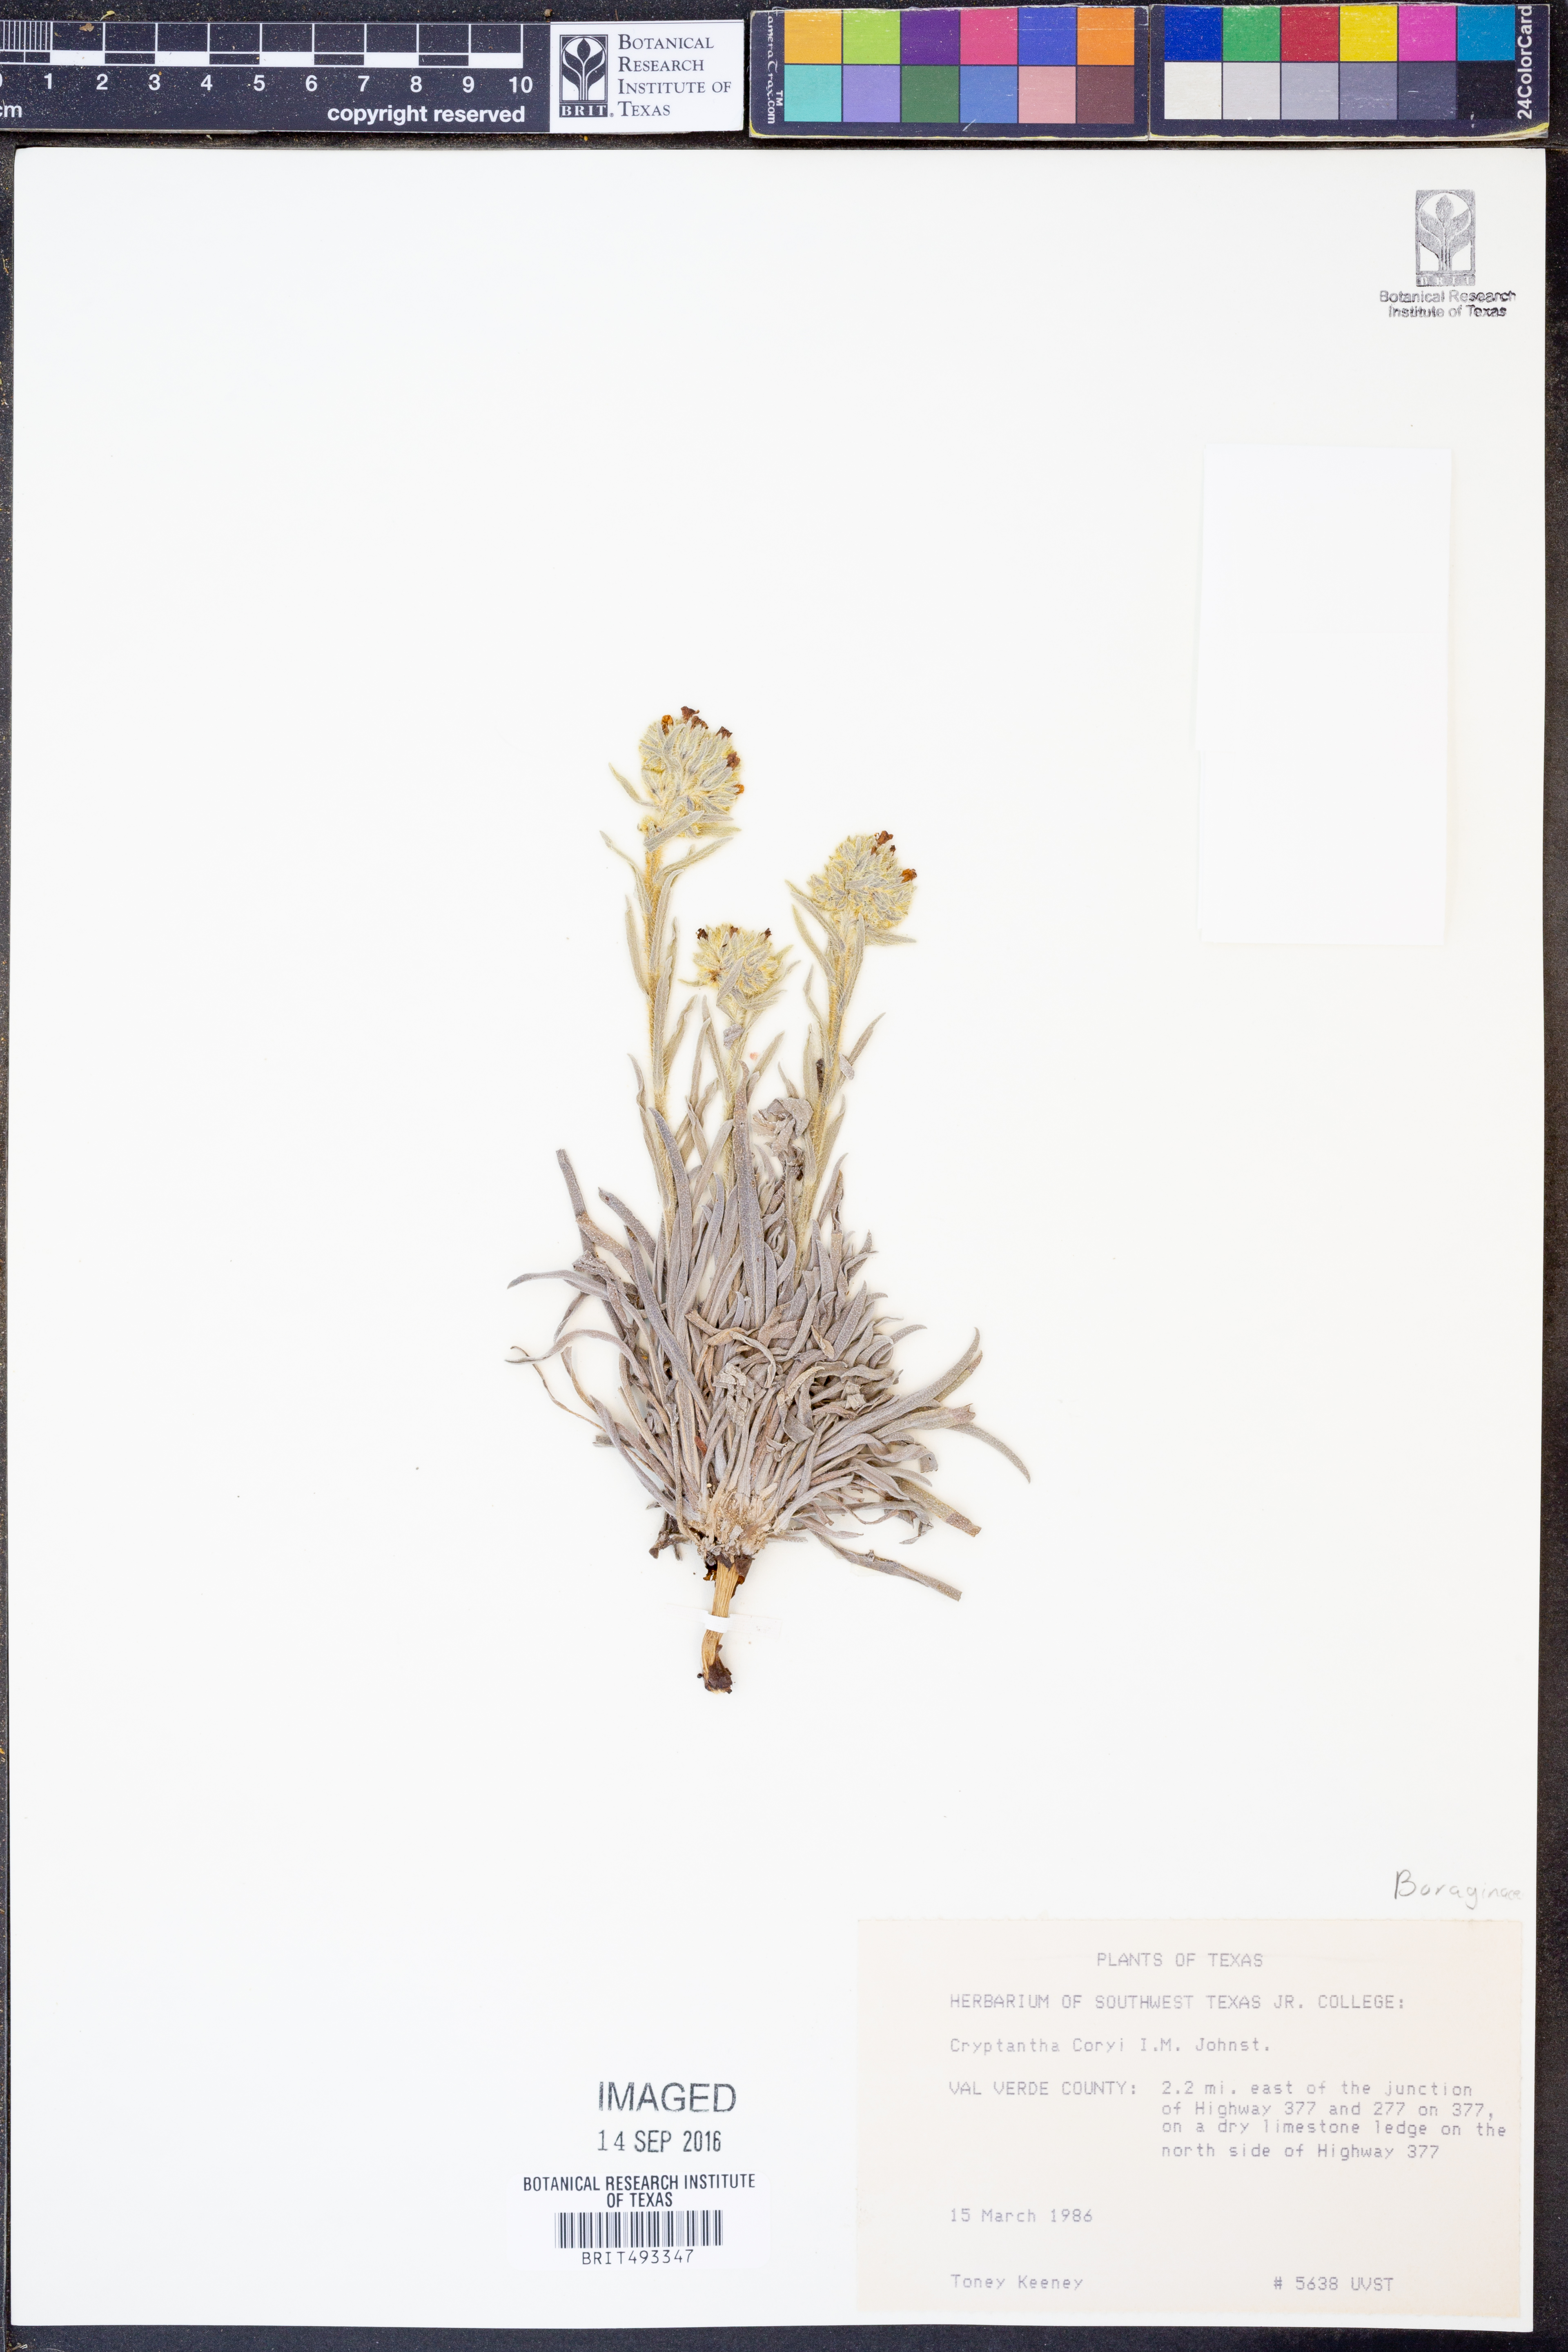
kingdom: Plantae
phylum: Tracheophyta
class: Magnoliopsida
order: Boraginales
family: Boraginaceae
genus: Oreocarya
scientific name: Oreocarya palmeri
